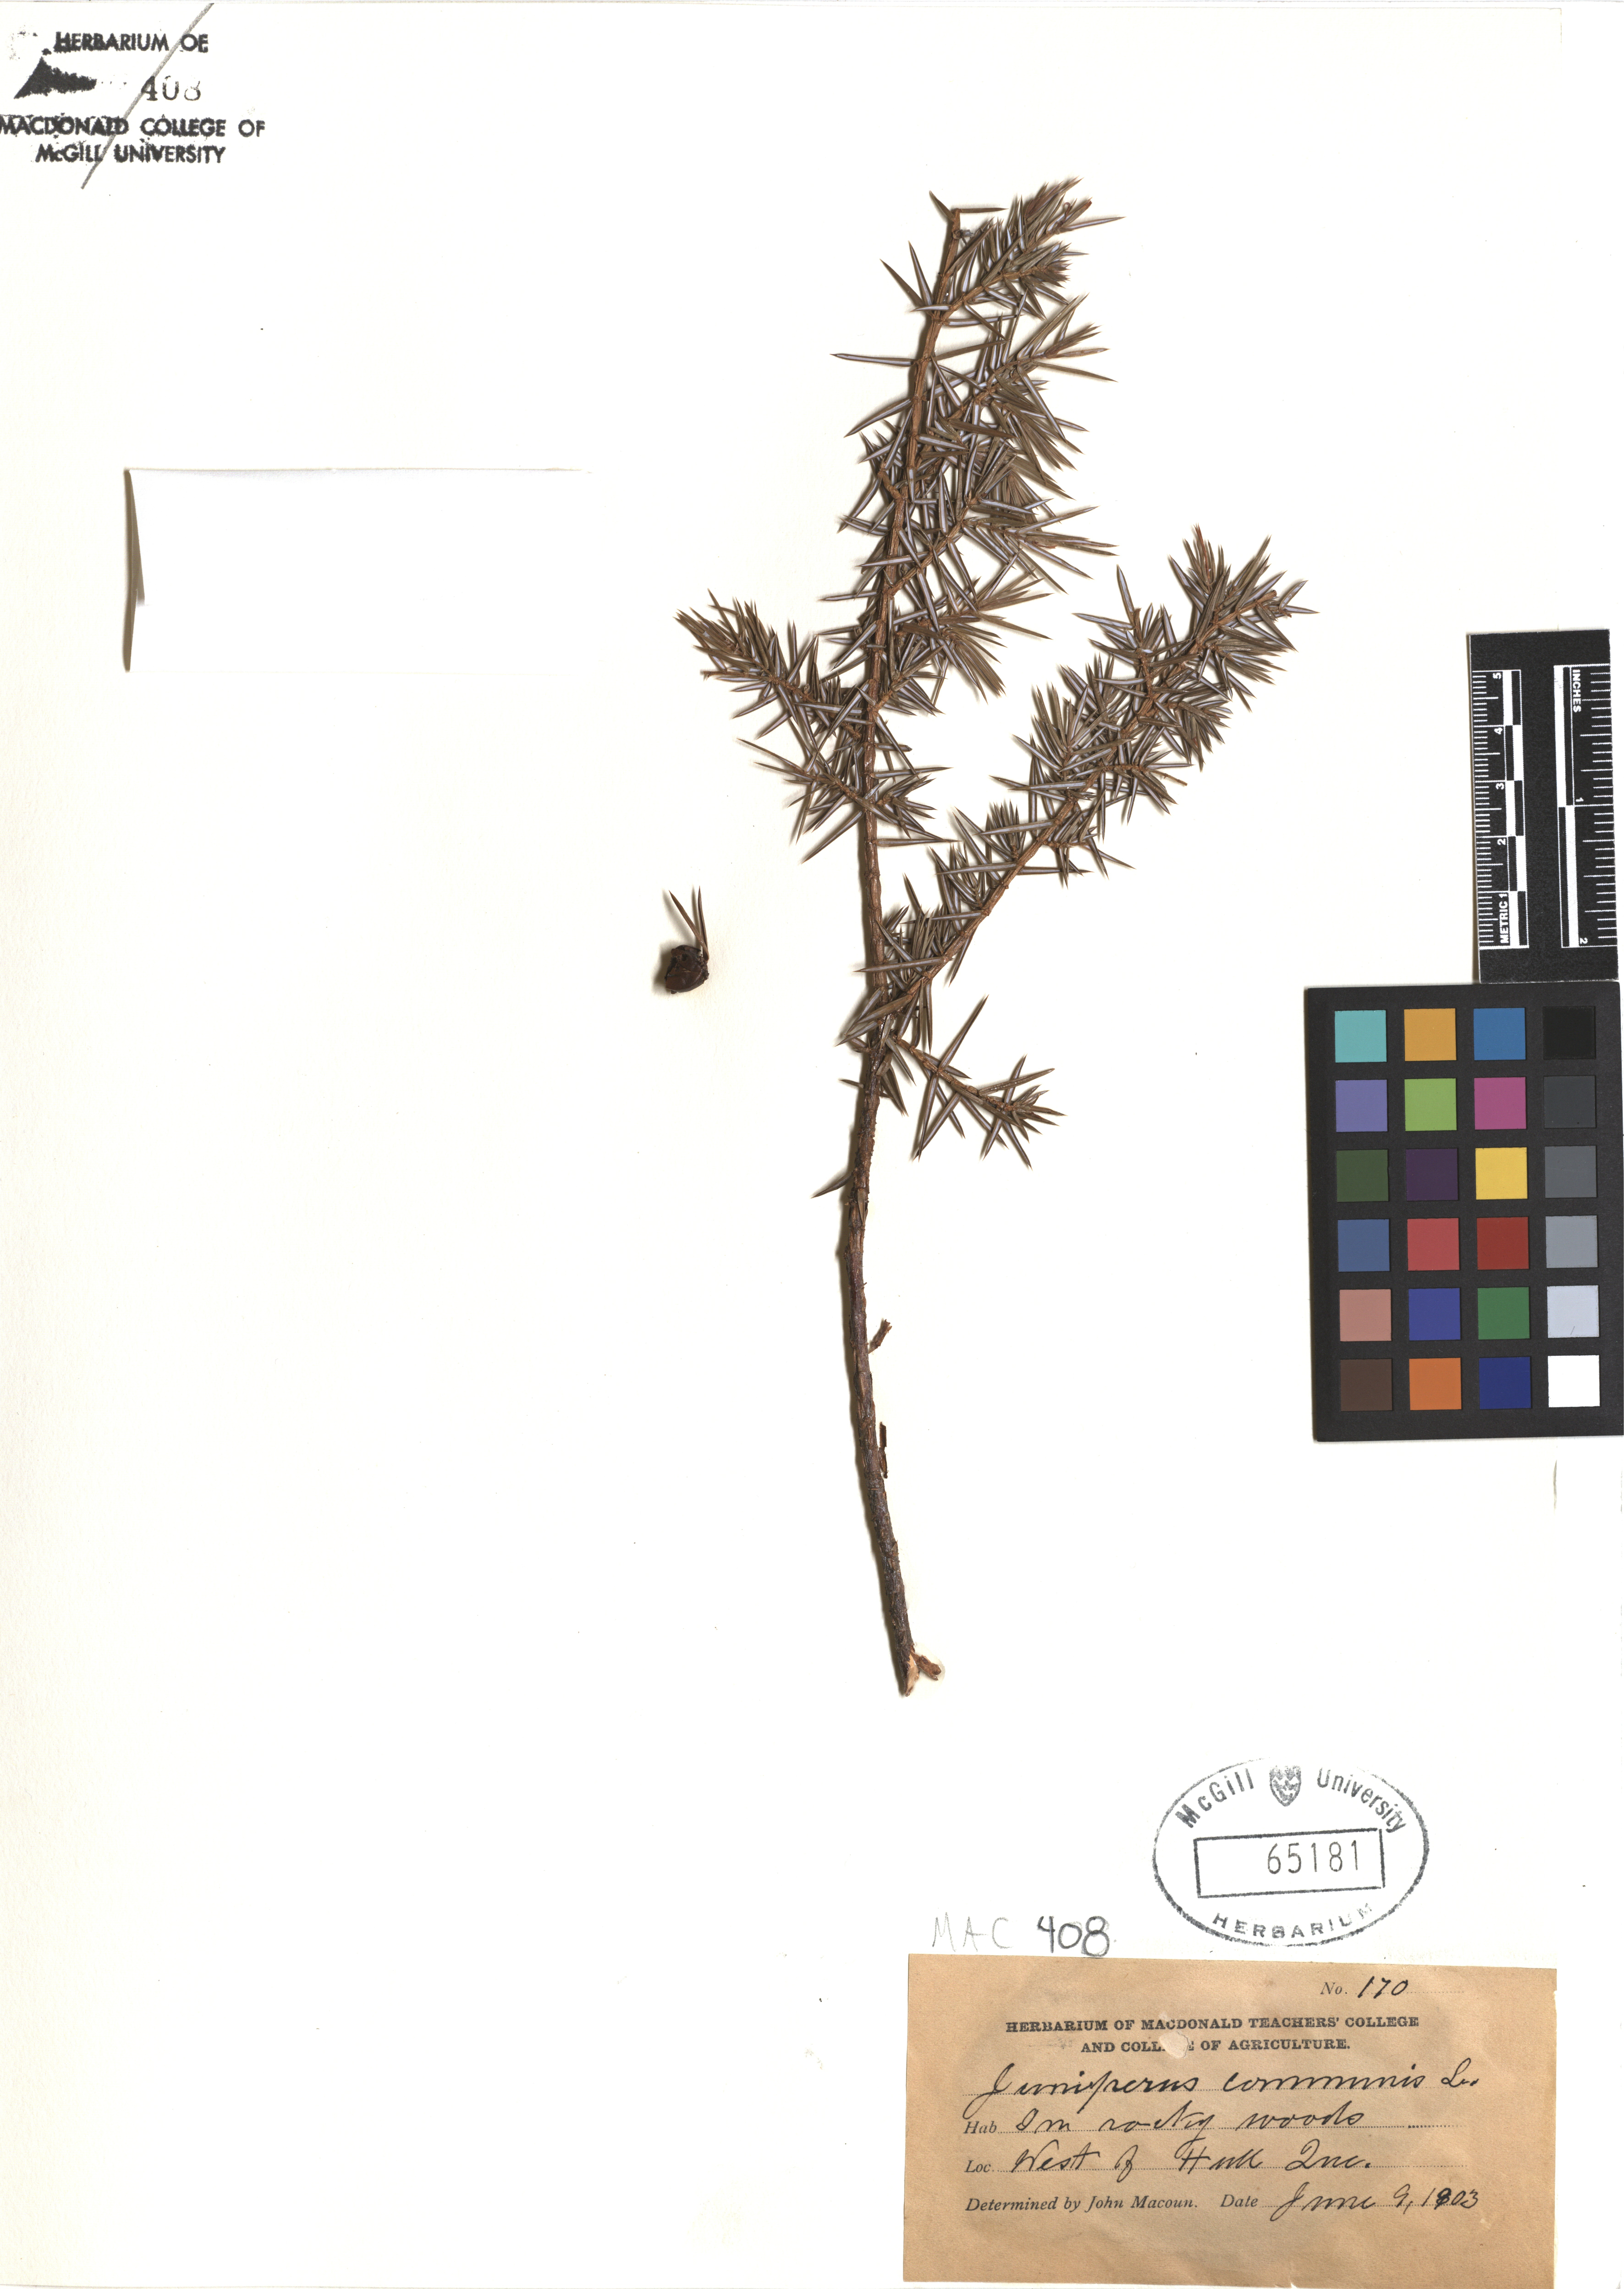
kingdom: Plantae
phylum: Tracheophyta
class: Pinopsida
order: Pinales
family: Cupressaceae
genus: Juniperus
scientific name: Juniperus communis
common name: Common juniper
